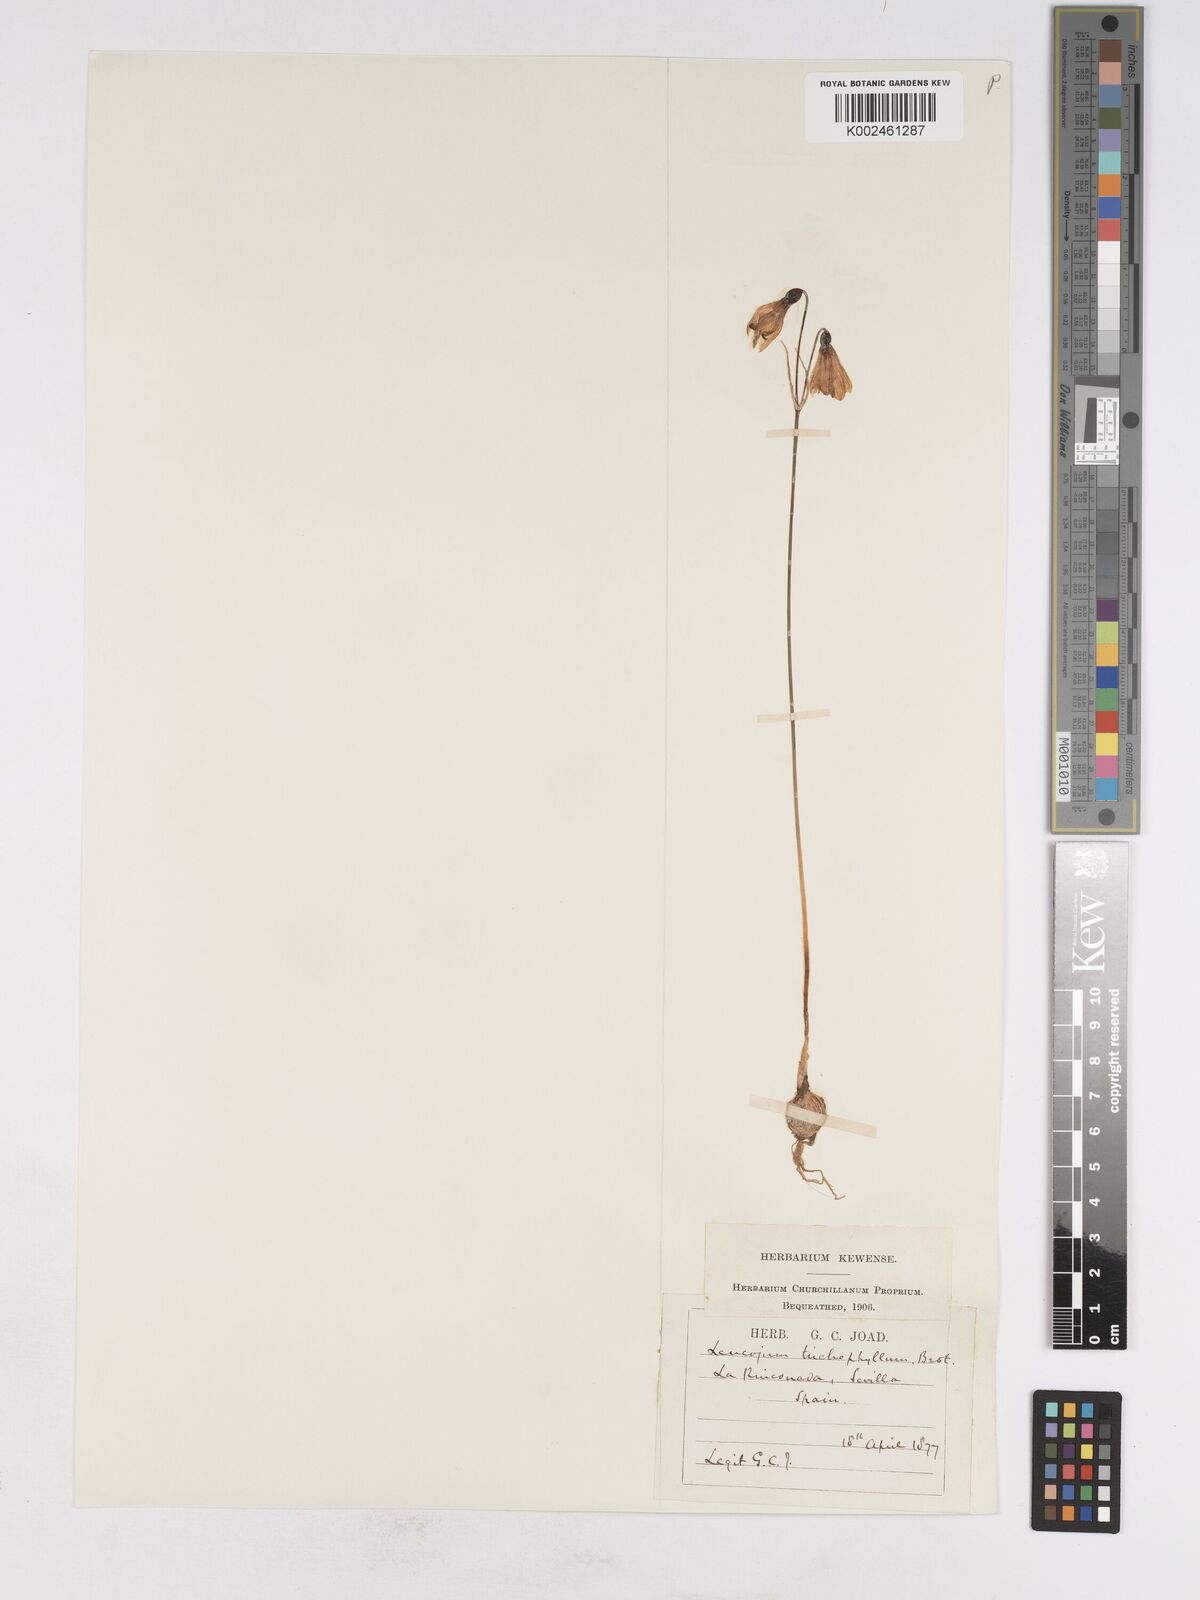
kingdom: Plantae
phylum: Tracheophyta
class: Liliopsida
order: Asparagales
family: Amaryllidaceae
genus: Acis
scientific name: Acis trichophylla
